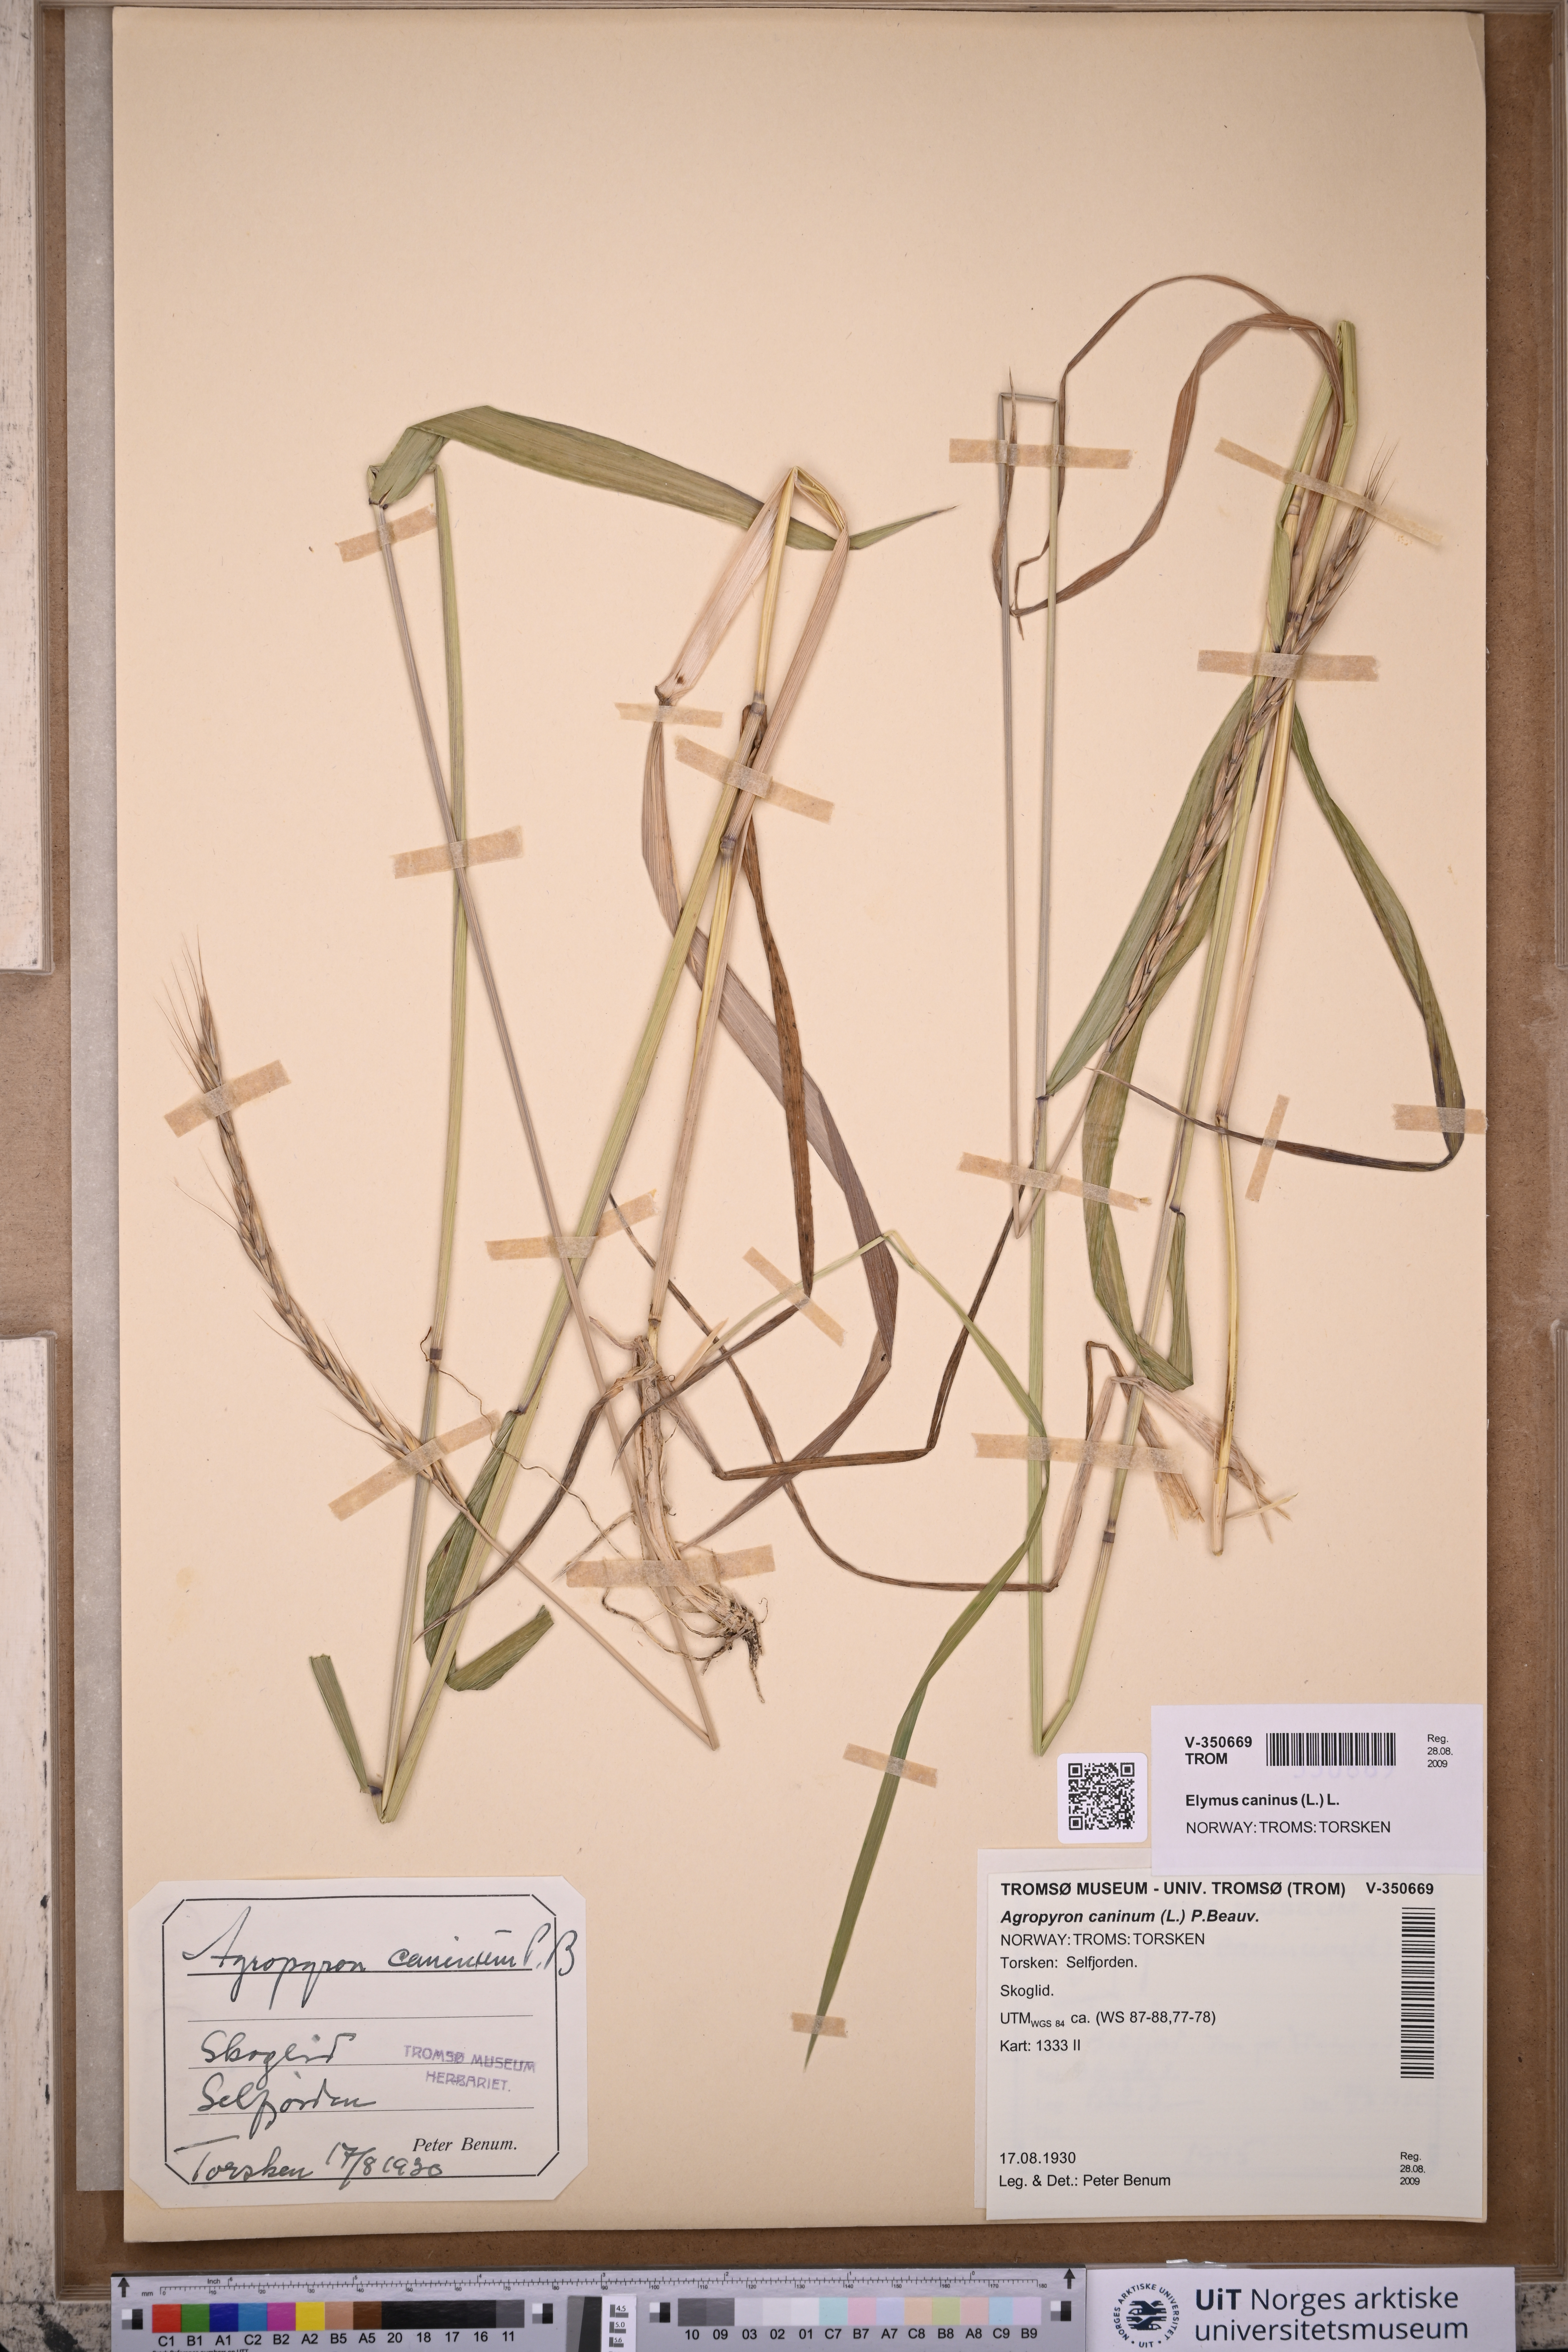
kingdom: Plantae
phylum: Tracheophyta
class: Liliopsida
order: Poales
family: Poaceae
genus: Elymus
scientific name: Elymus caninus
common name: Bearded couch
